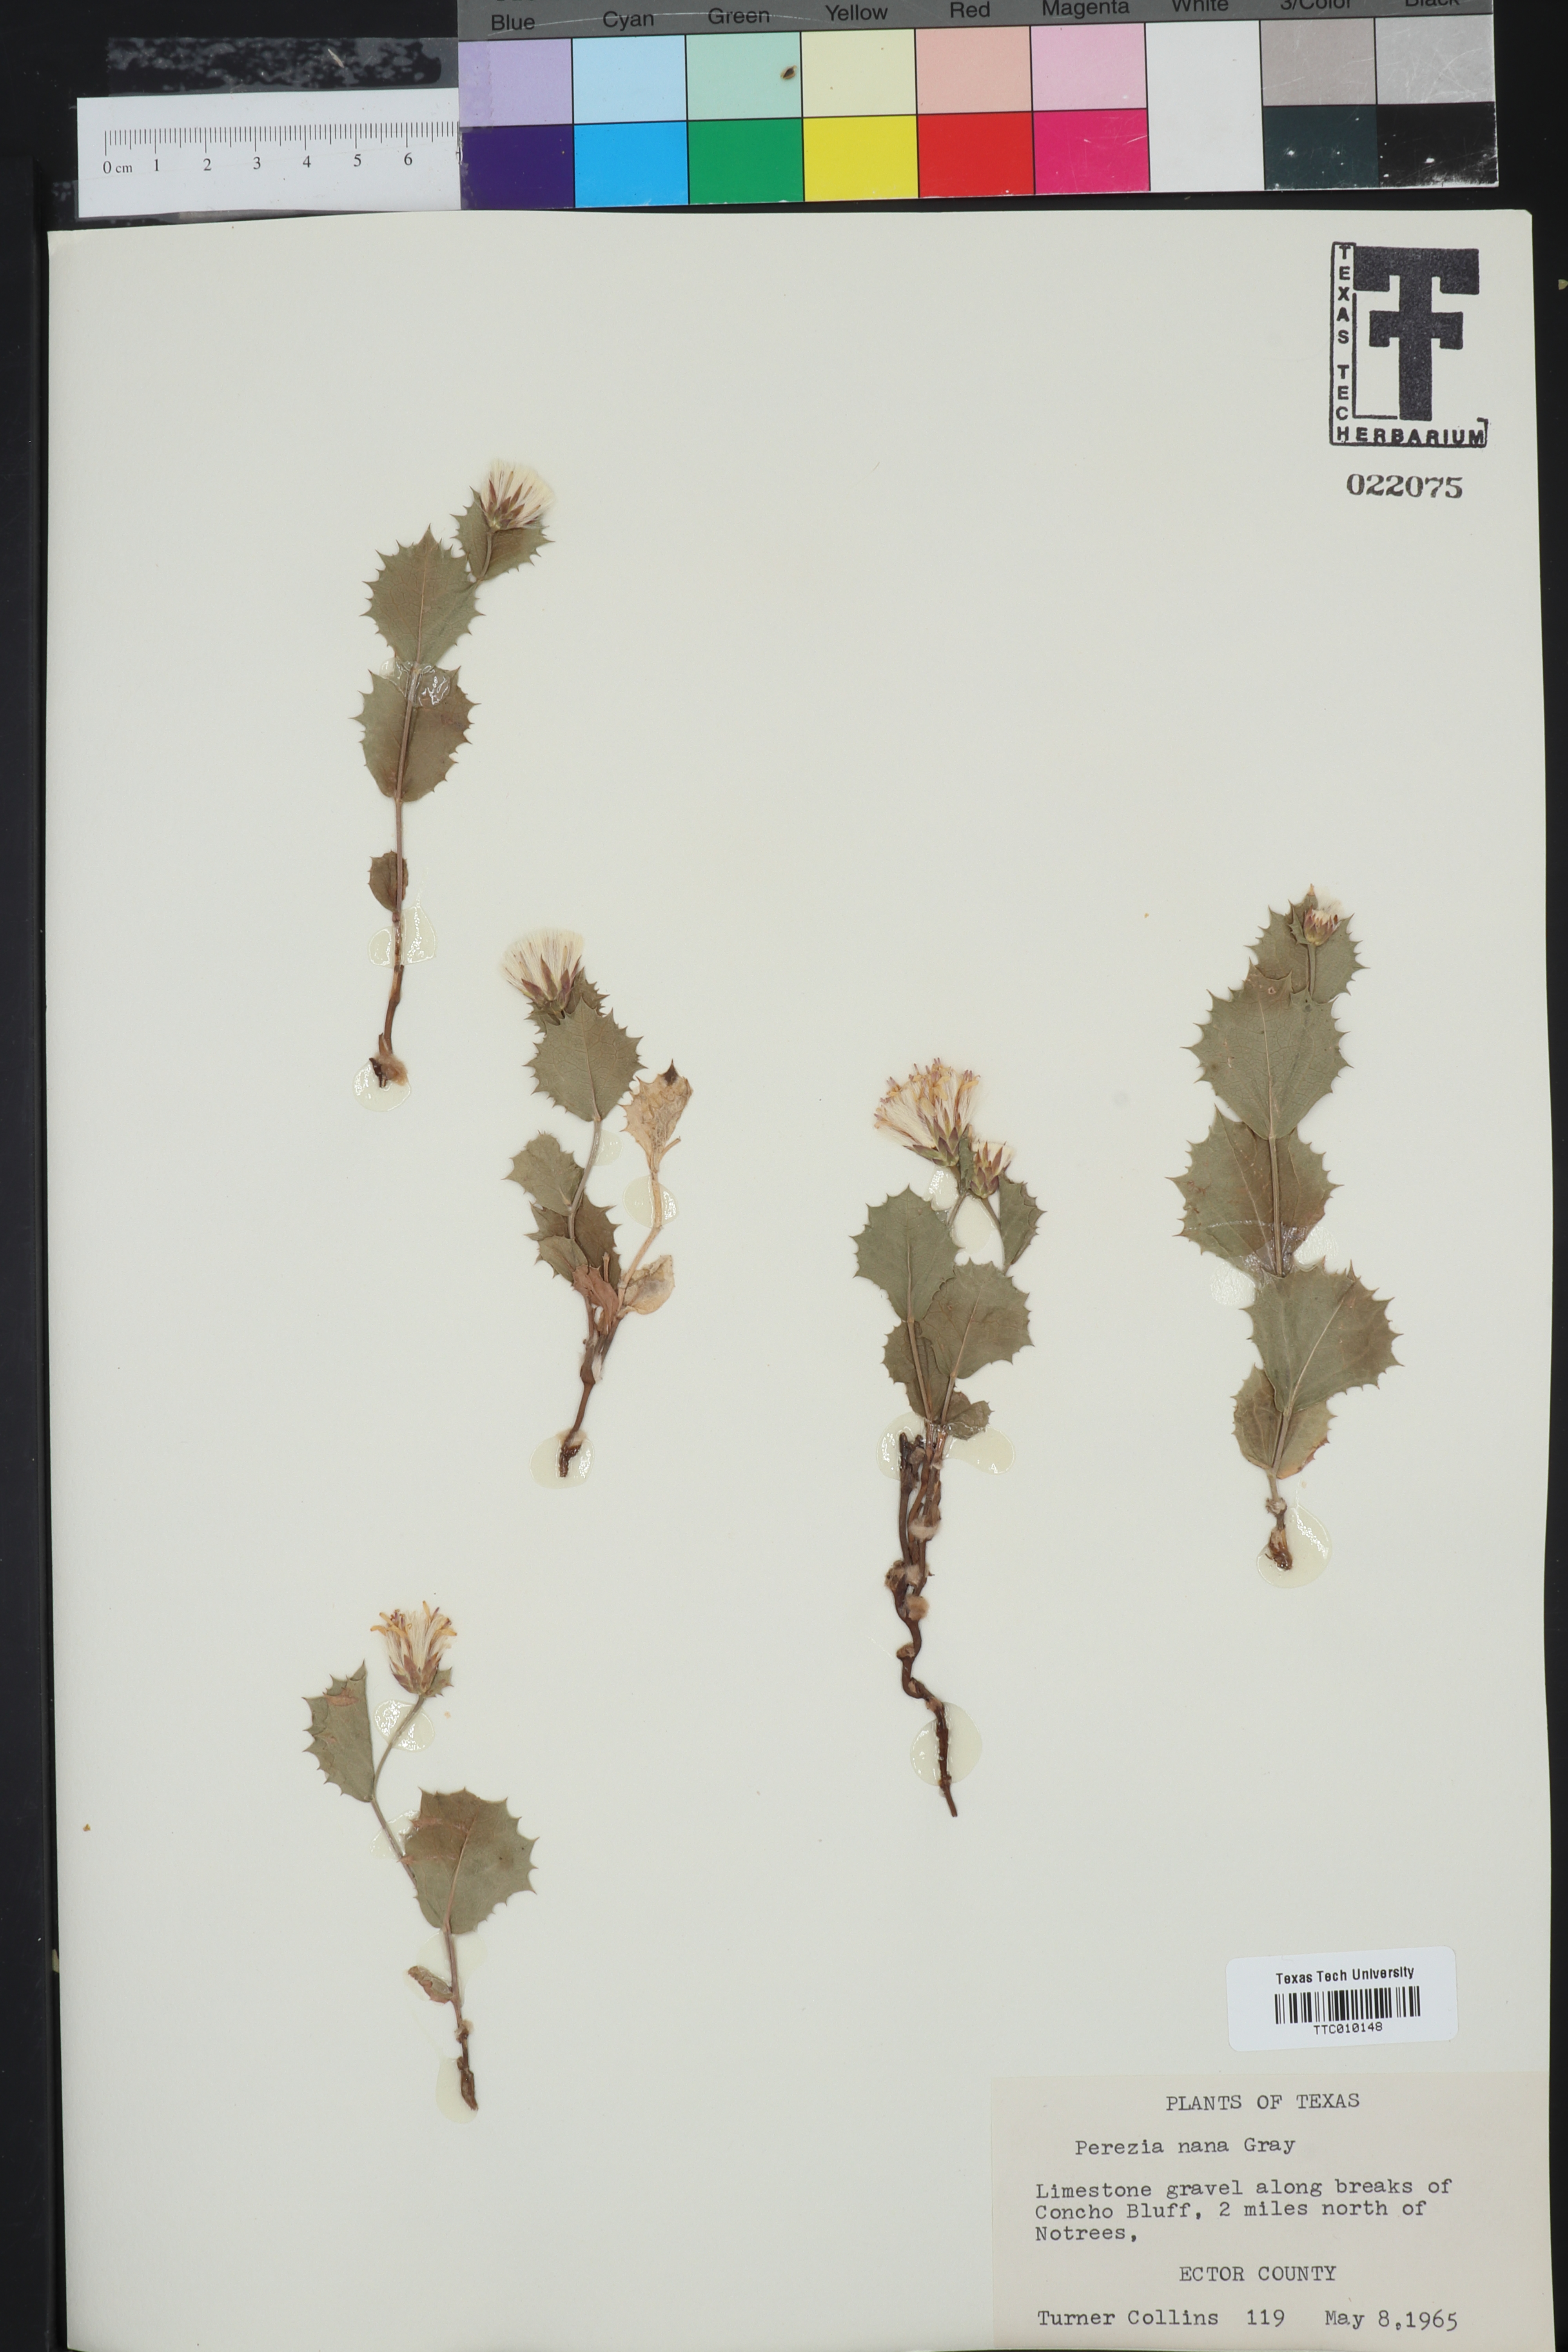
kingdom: Plantae
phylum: Tracheophyta
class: Magnoliopsida
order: Asterales
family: Asteraceae
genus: Acourtia
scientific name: Acourtia nana
